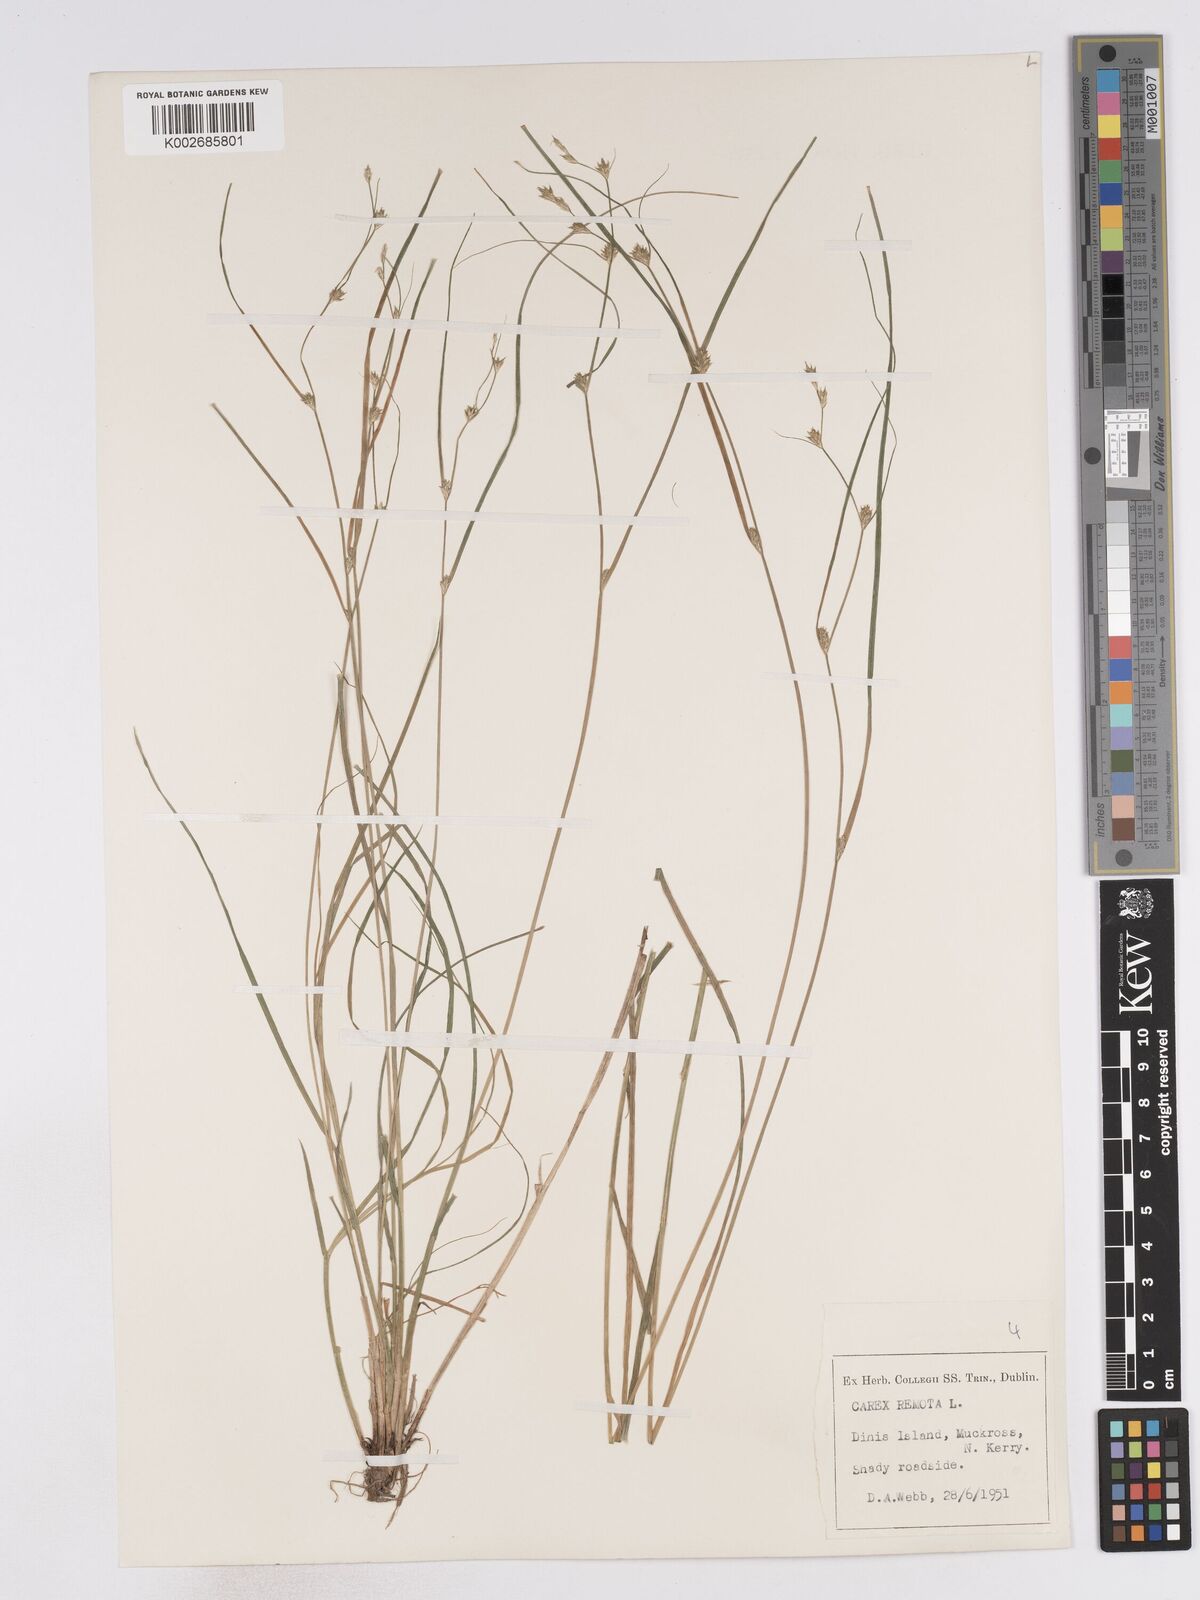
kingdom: Plantae
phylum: Tracheophyta
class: Liliopsida
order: Poales
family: Cyperaceae
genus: Carex
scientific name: Carex remota
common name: Remote sedge
